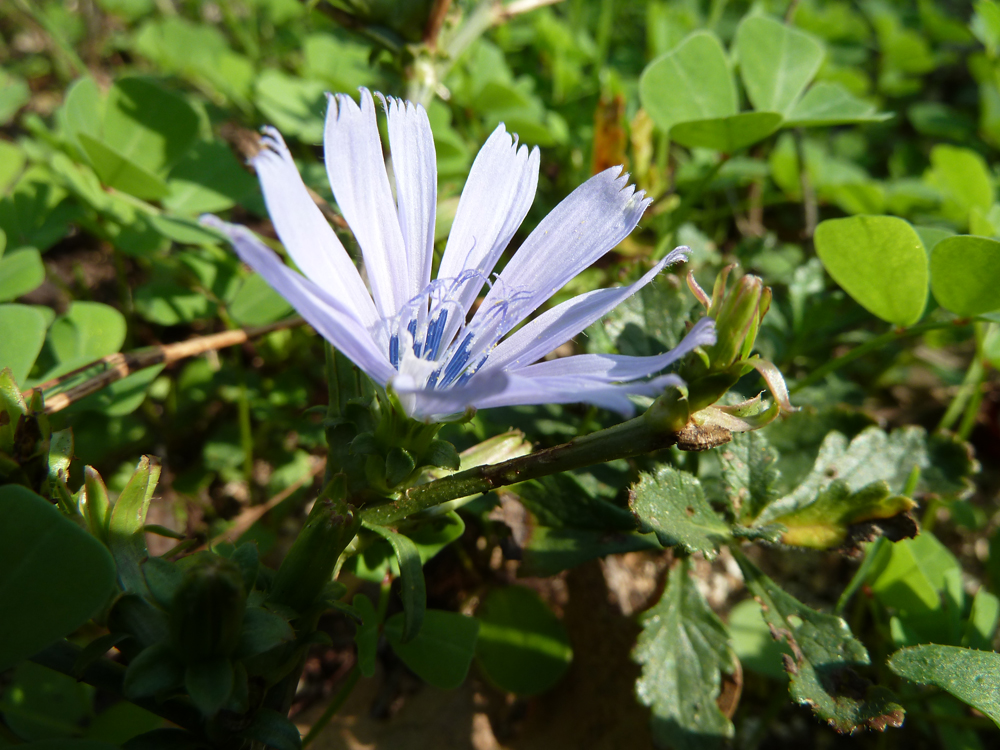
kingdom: Plantae
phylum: Tracheophyta
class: Magnoliopsida
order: Asterales
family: Asteraceae
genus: Cichorium
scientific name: Cichorium intybus
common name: Chicory
